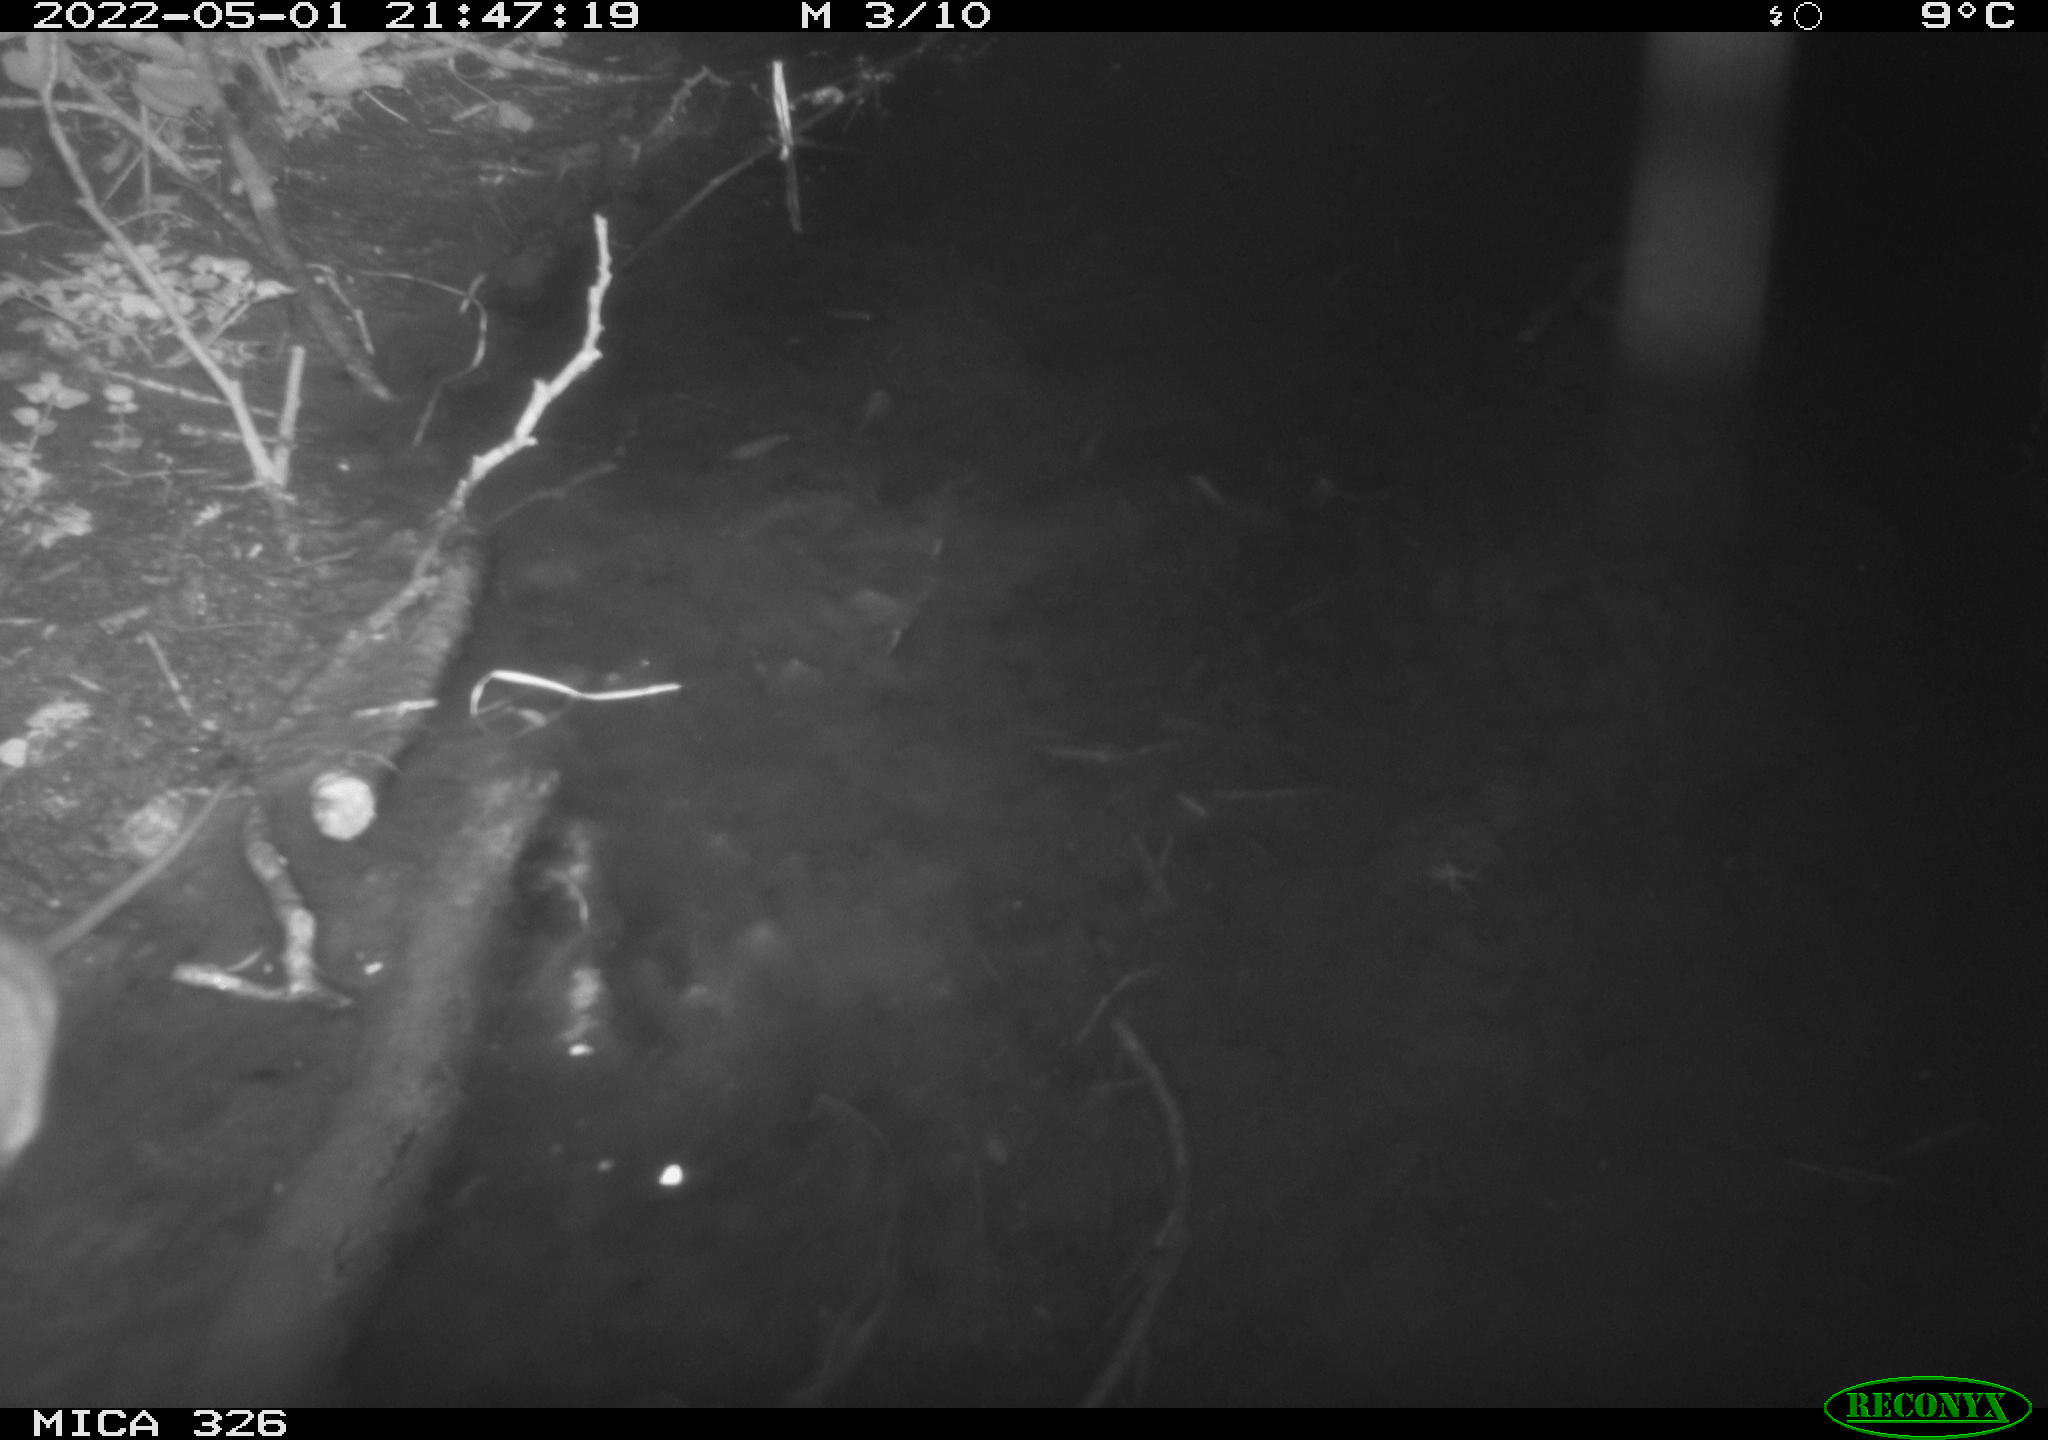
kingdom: Animalia
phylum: Chordata
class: Mammalia
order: Rodentia
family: Muridae
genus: Rattus
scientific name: Rattus norvegicus
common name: Brown rat
